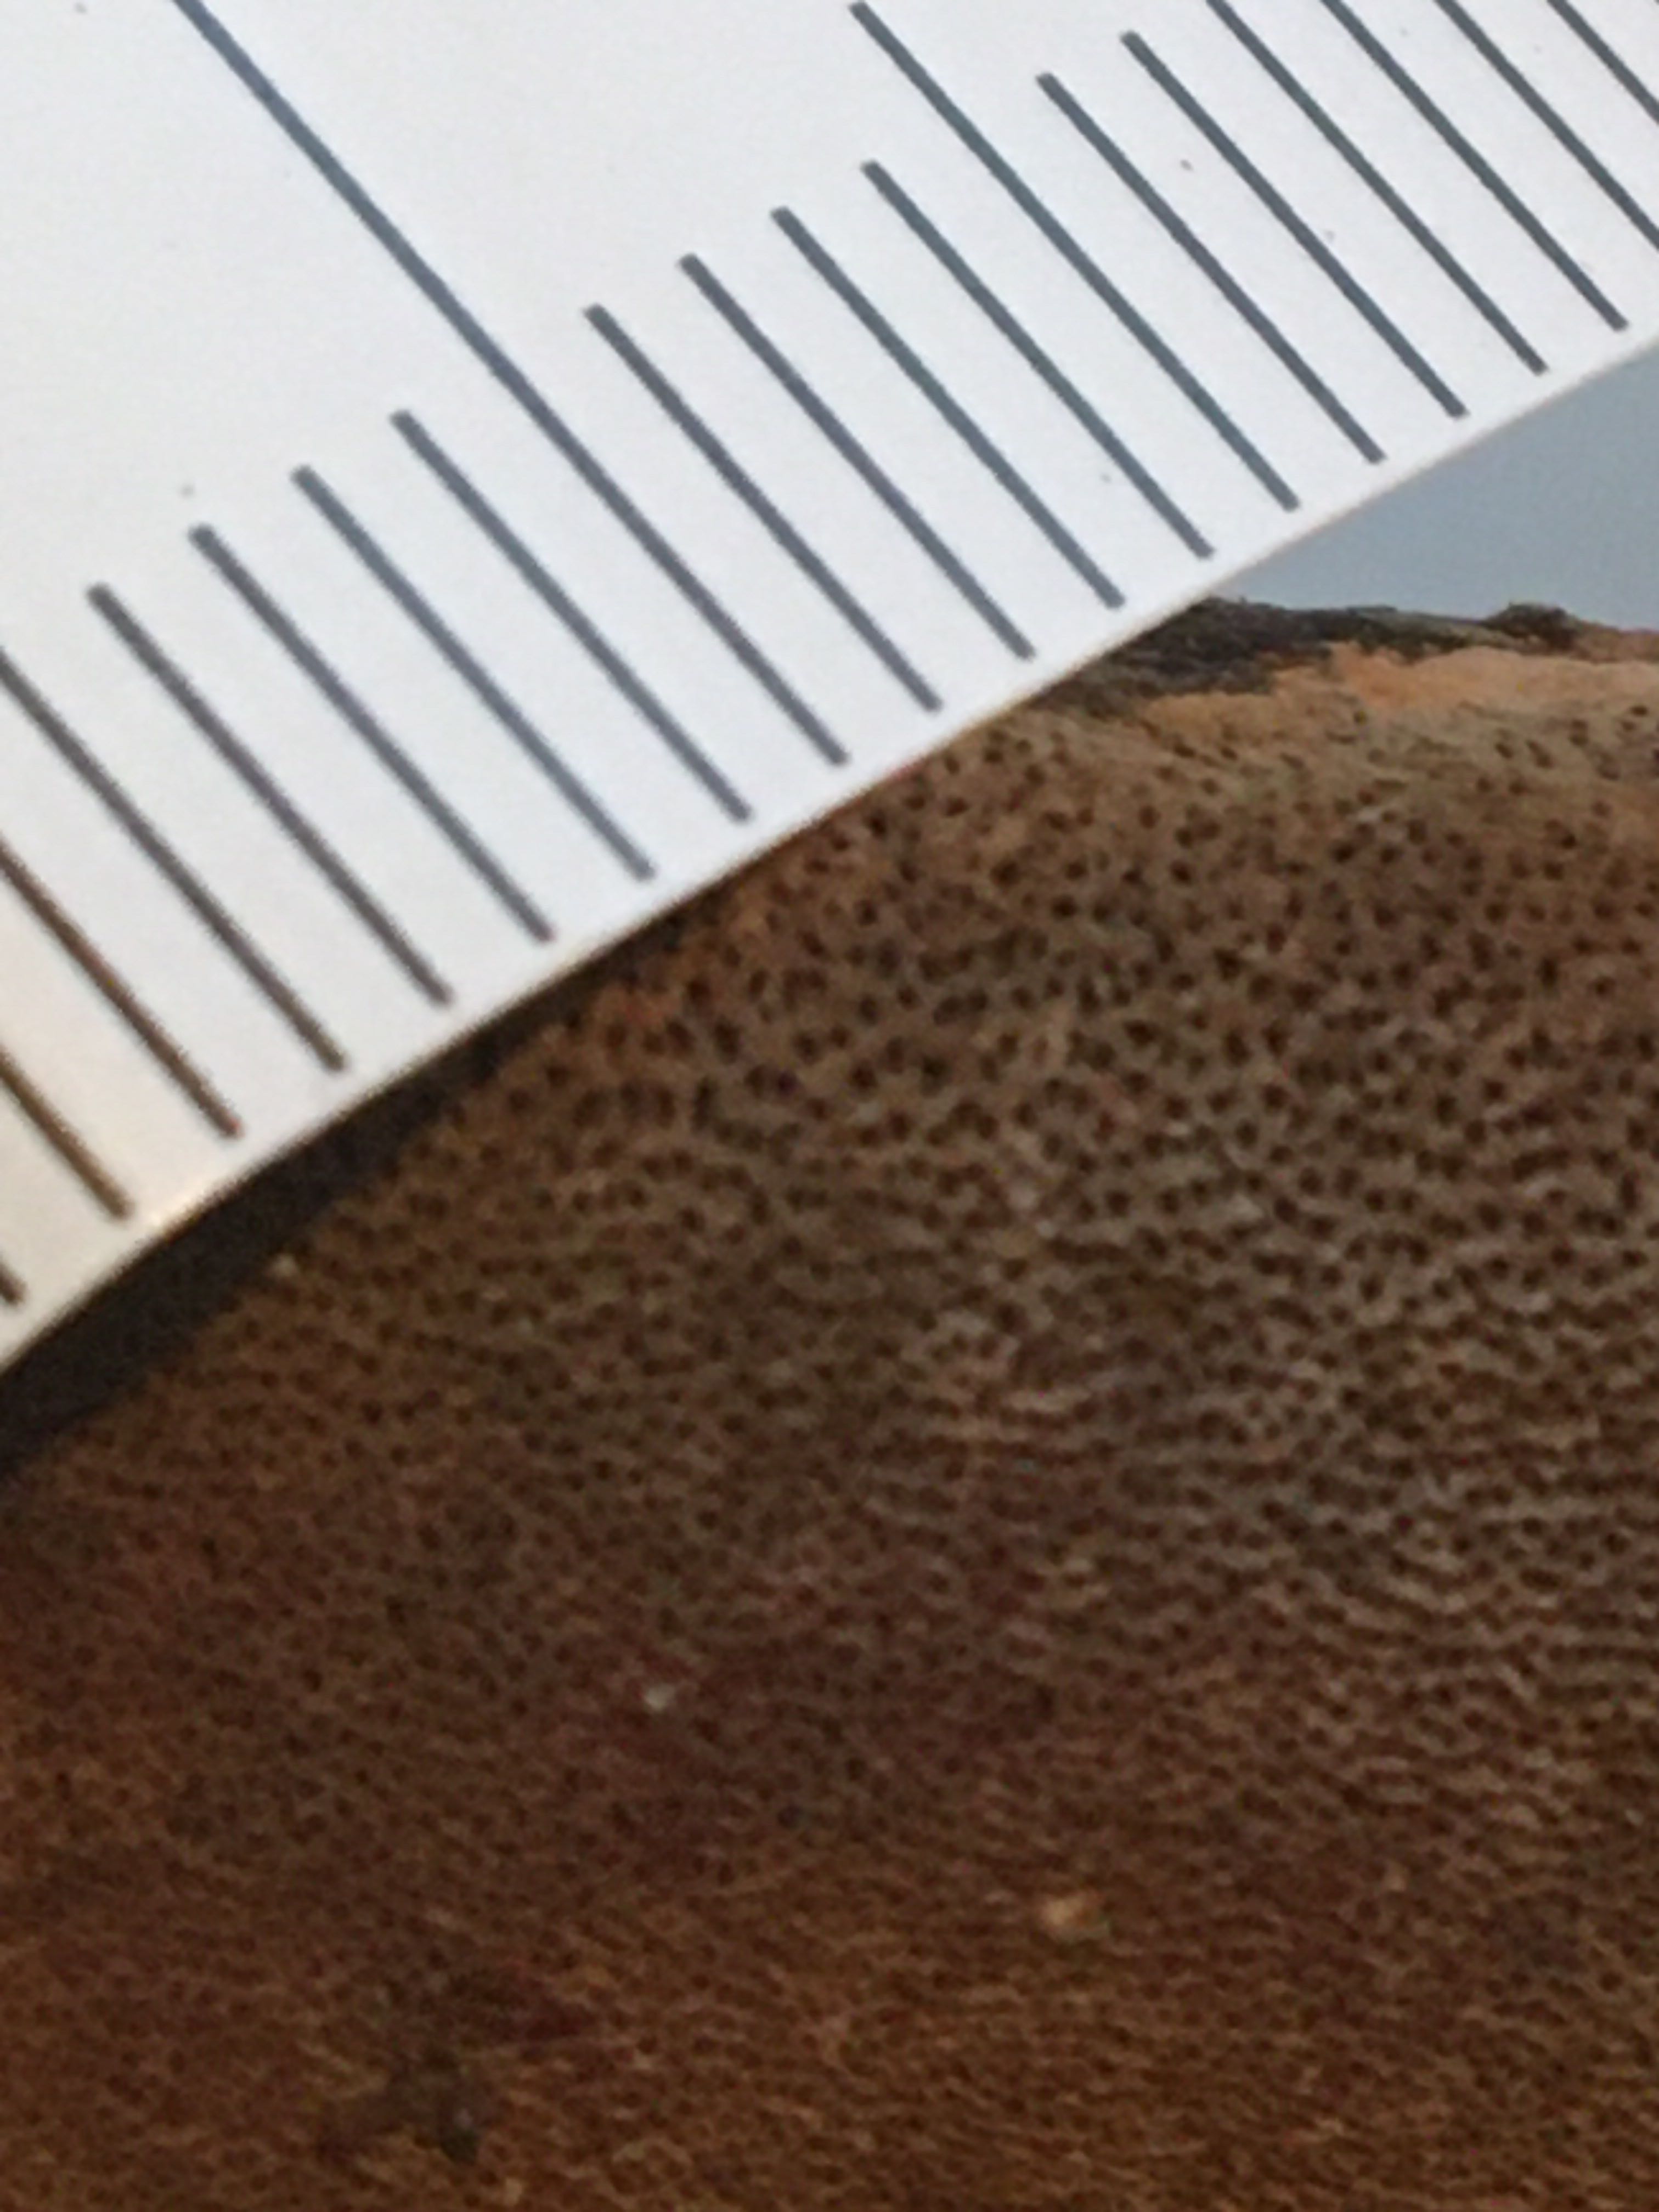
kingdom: Fungi
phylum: Basidiomycota
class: Agaricomycetes
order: Hymenochaetales
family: Hymenochaetaceae
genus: Phellinus
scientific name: Phellinus pomaceus
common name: blomme-ildporesvamp
